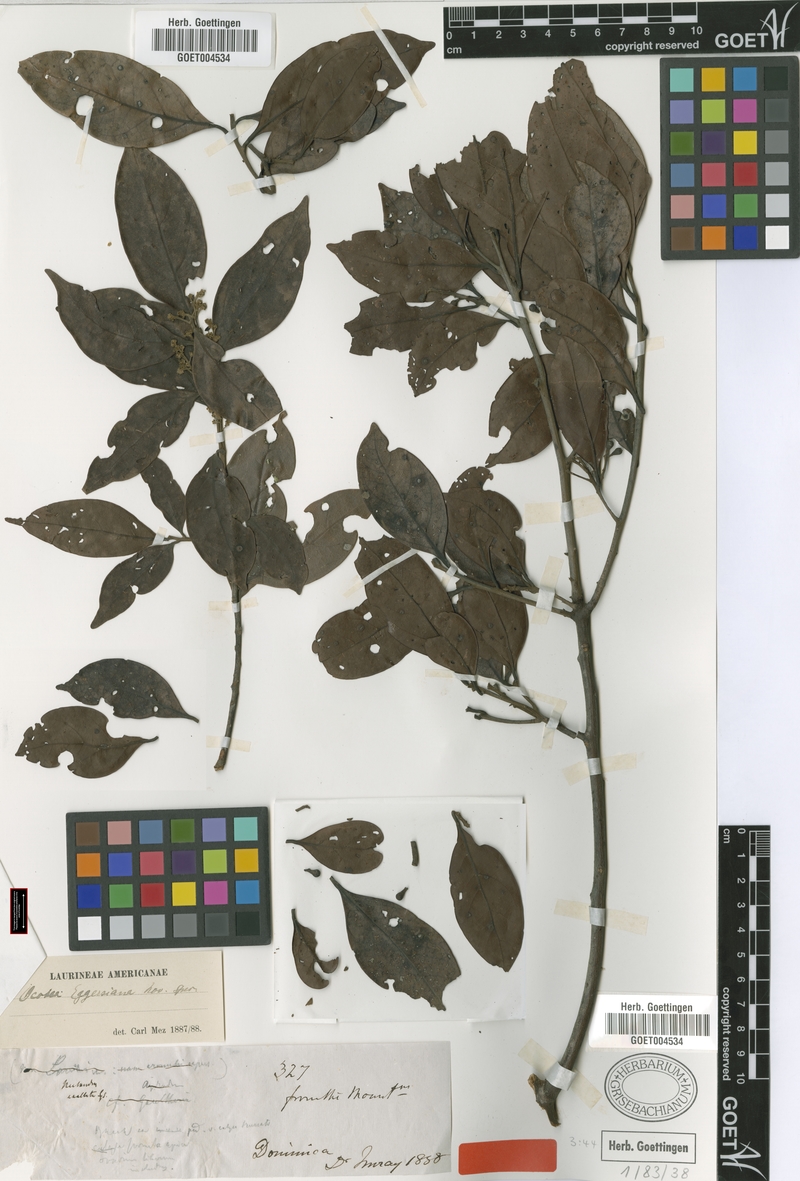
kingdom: Plantae
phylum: Tracheophyta
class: Magnoliopsida
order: Laurales
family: Lauraceae
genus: Ocotea
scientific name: Ocotea eggersiana
